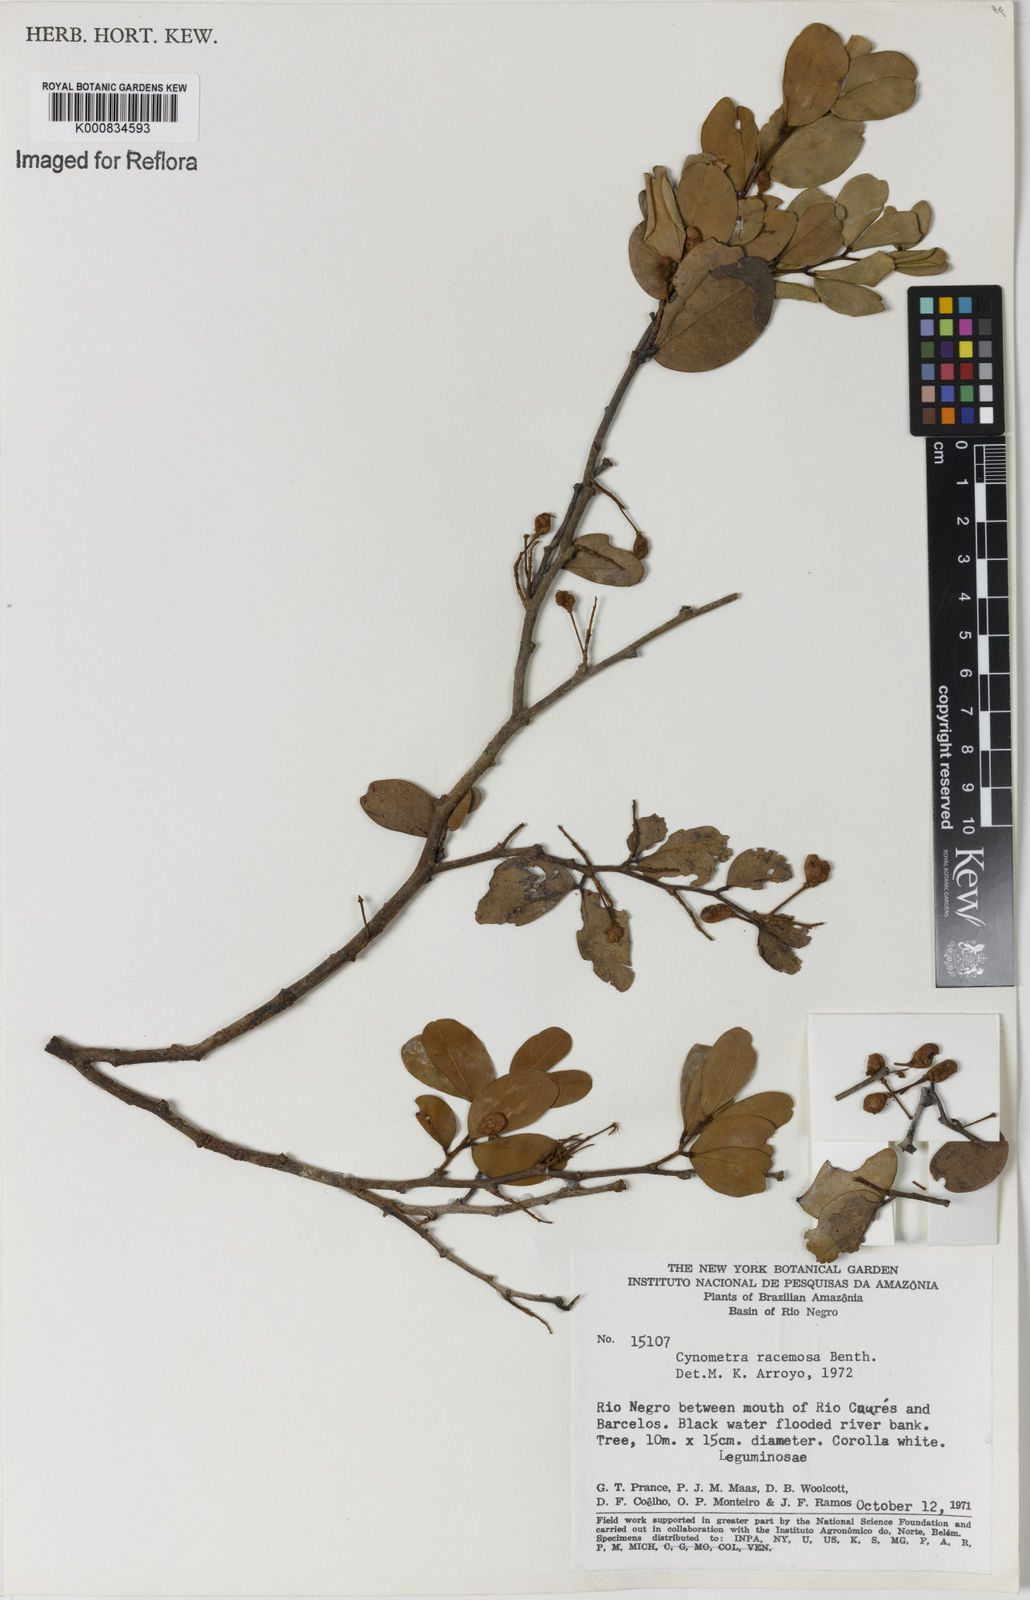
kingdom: Plantae
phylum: Tracheophyta
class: Magnoliopsida
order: Fabales
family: Fabaceae
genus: Cynometra
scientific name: Cynometra phaselocarpa
